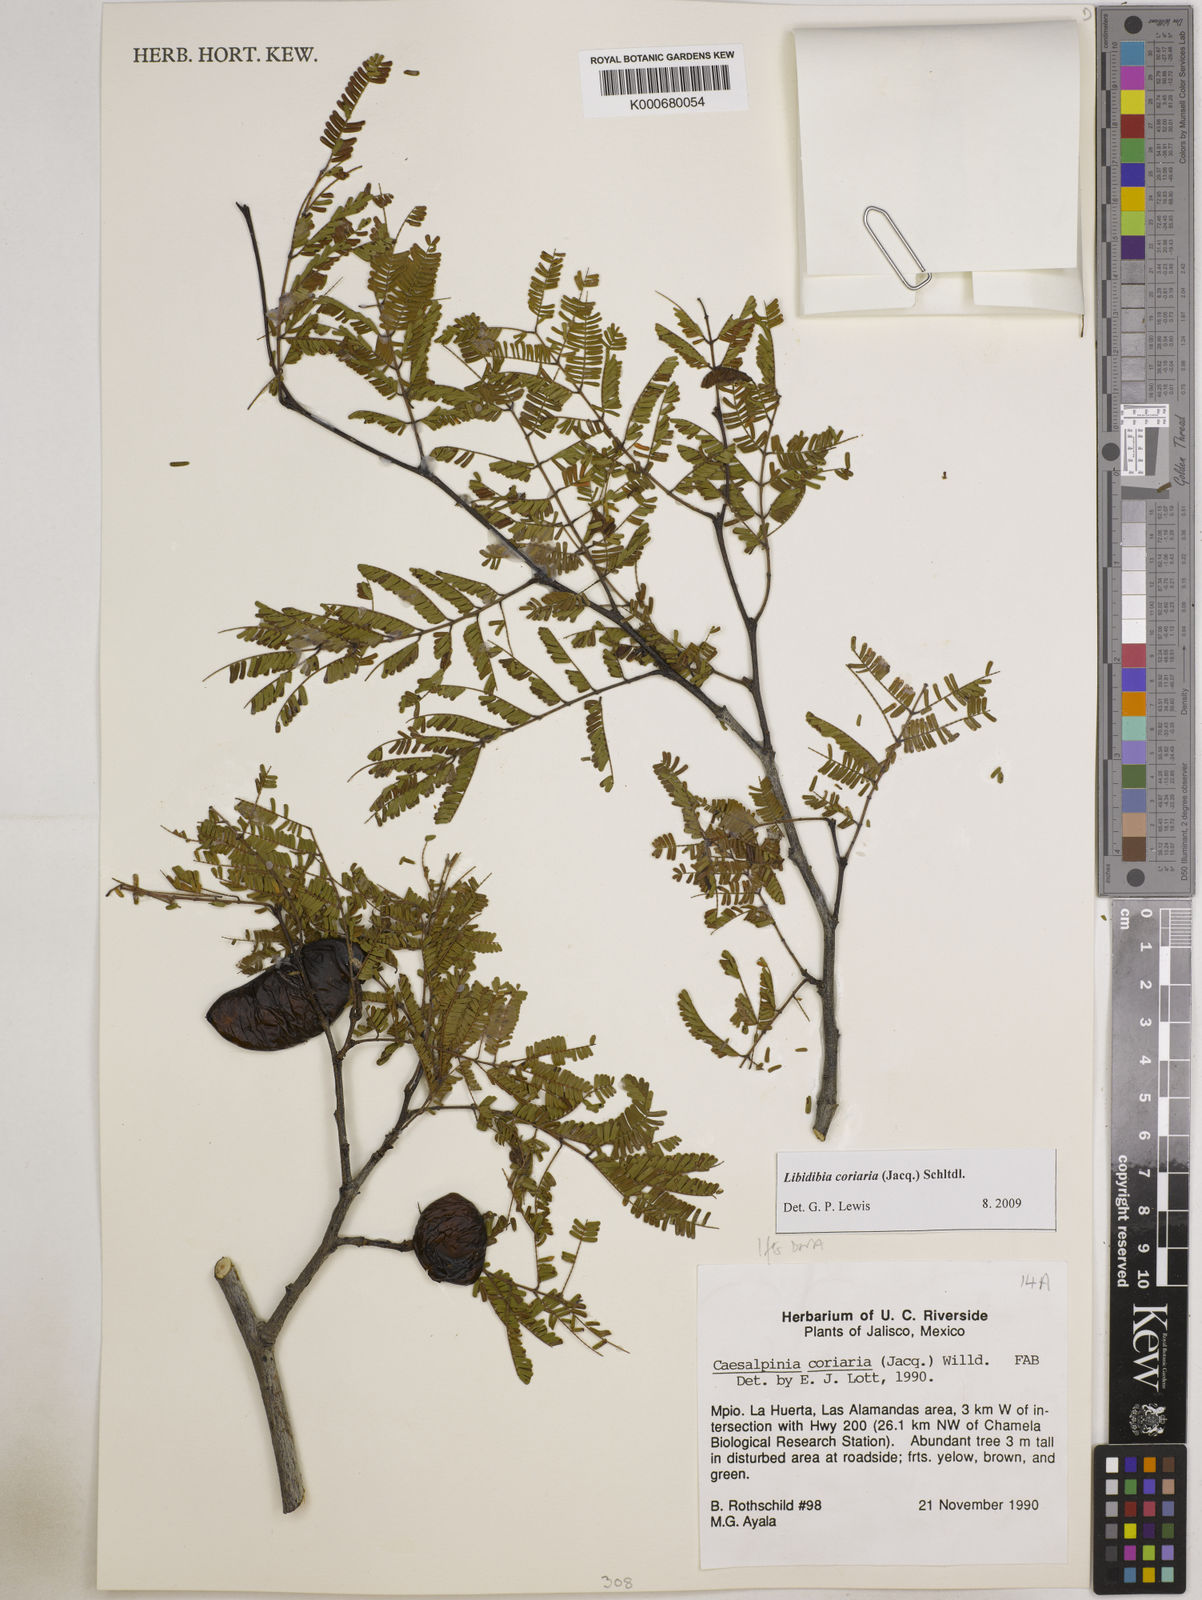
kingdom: Plantae
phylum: Tracheophyta
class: Magnoliopsida
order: Fabales
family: Fabaceae
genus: Libidibia
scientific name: Libidibia coriaria
